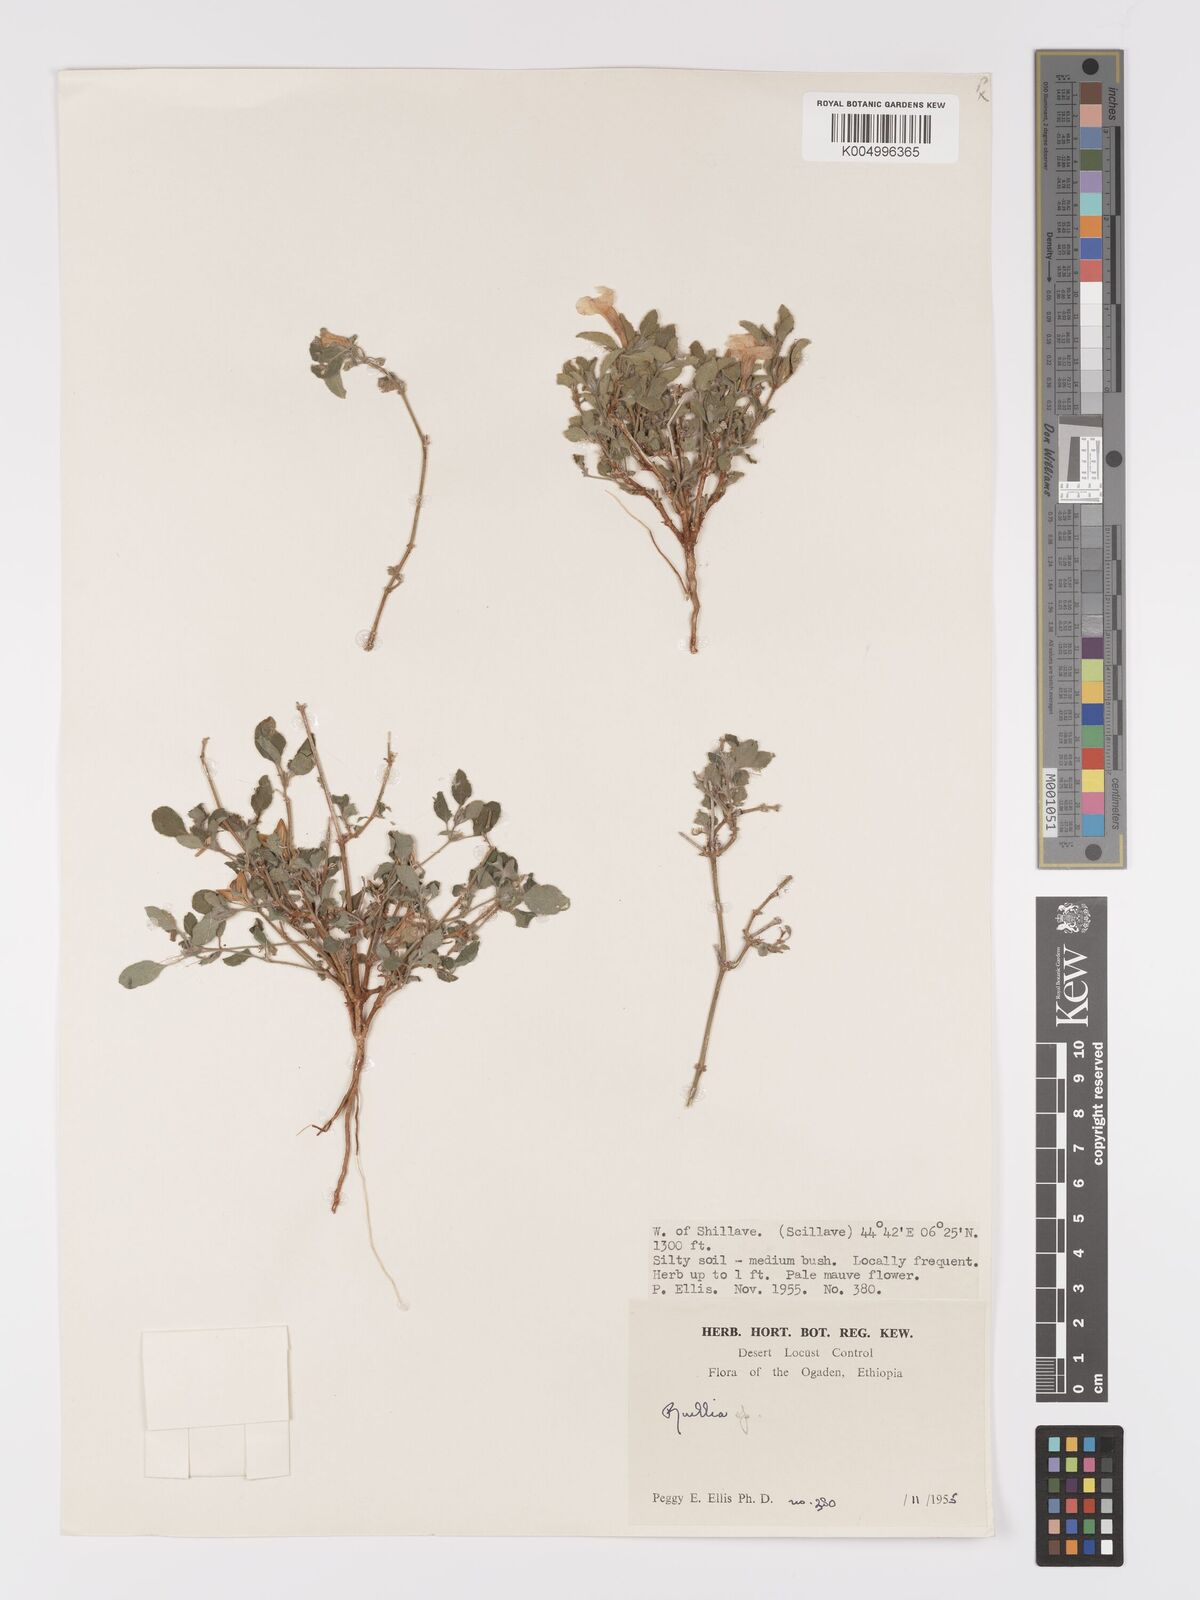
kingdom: Plantae
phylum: Tracheophyta
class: Magnoliopsida
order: Lamiales
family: Acanthaceae
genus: Ruellia
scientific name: Ruellia patula
